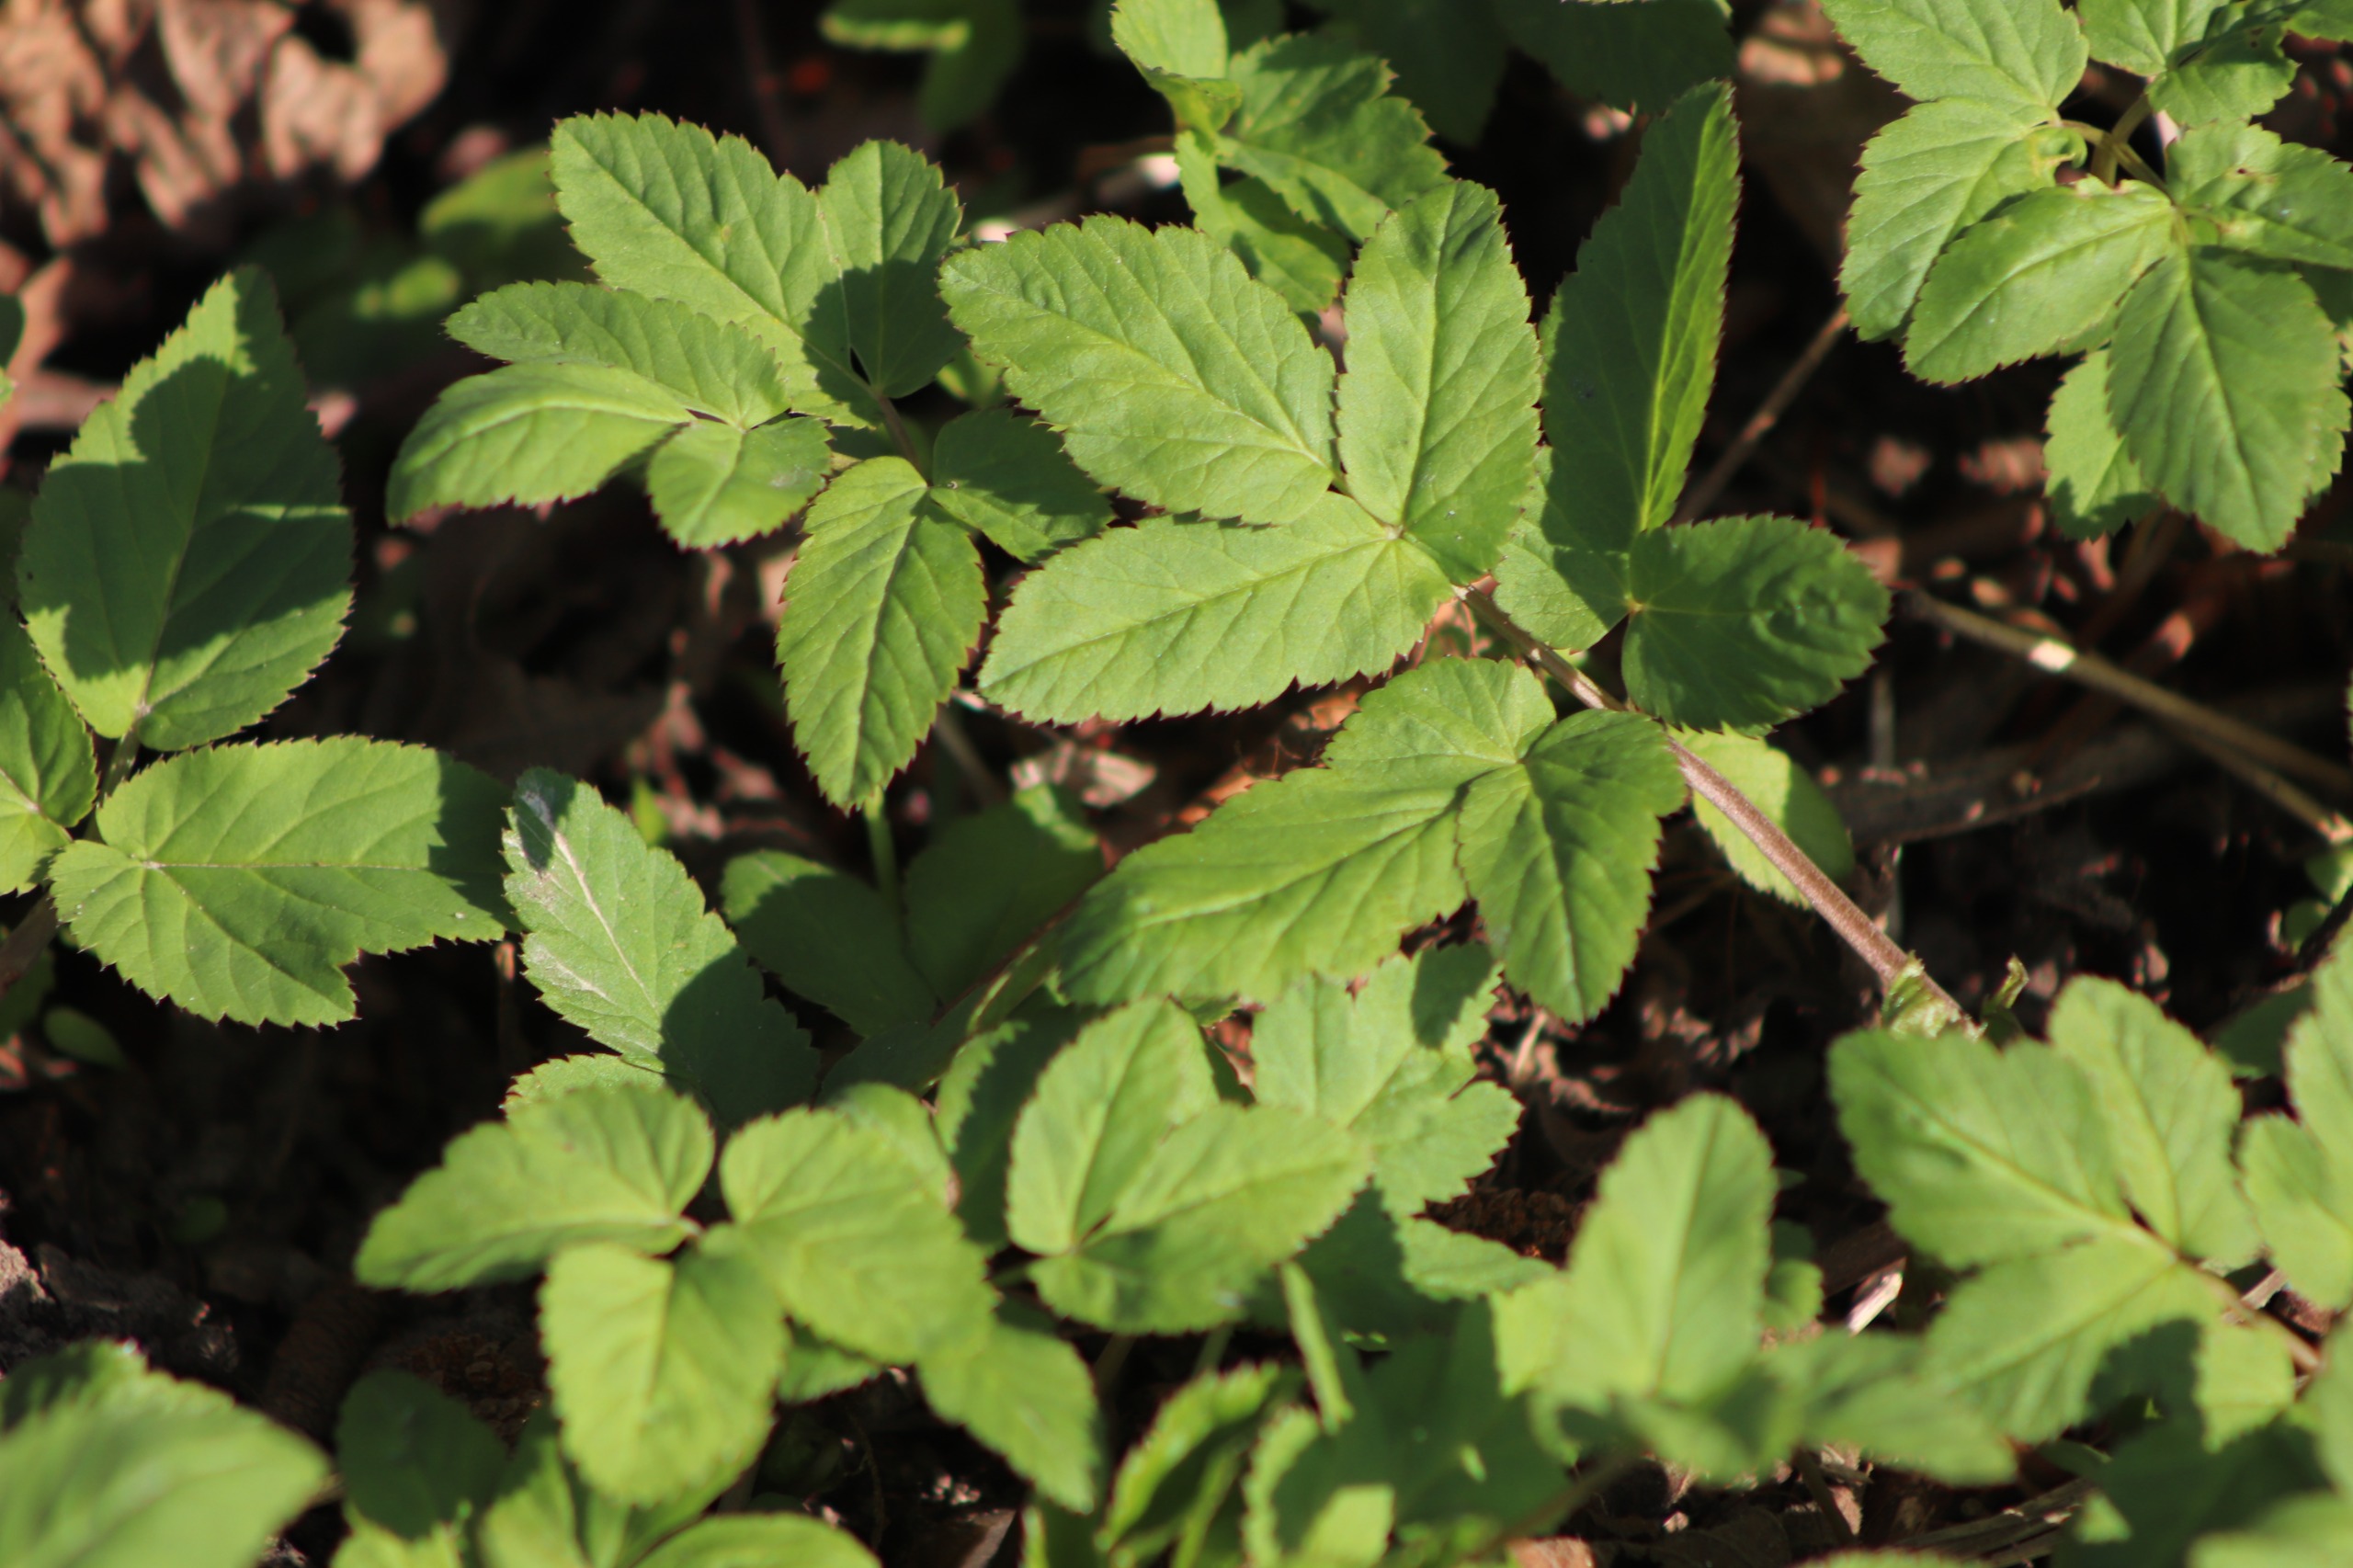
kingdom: Plantae
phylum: Tracheophyta
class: Magnoliopsida
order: Apiales
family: Apiaceae
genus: Aegopodium
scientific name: Aegopodium podagraria
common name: Skvalderkål
